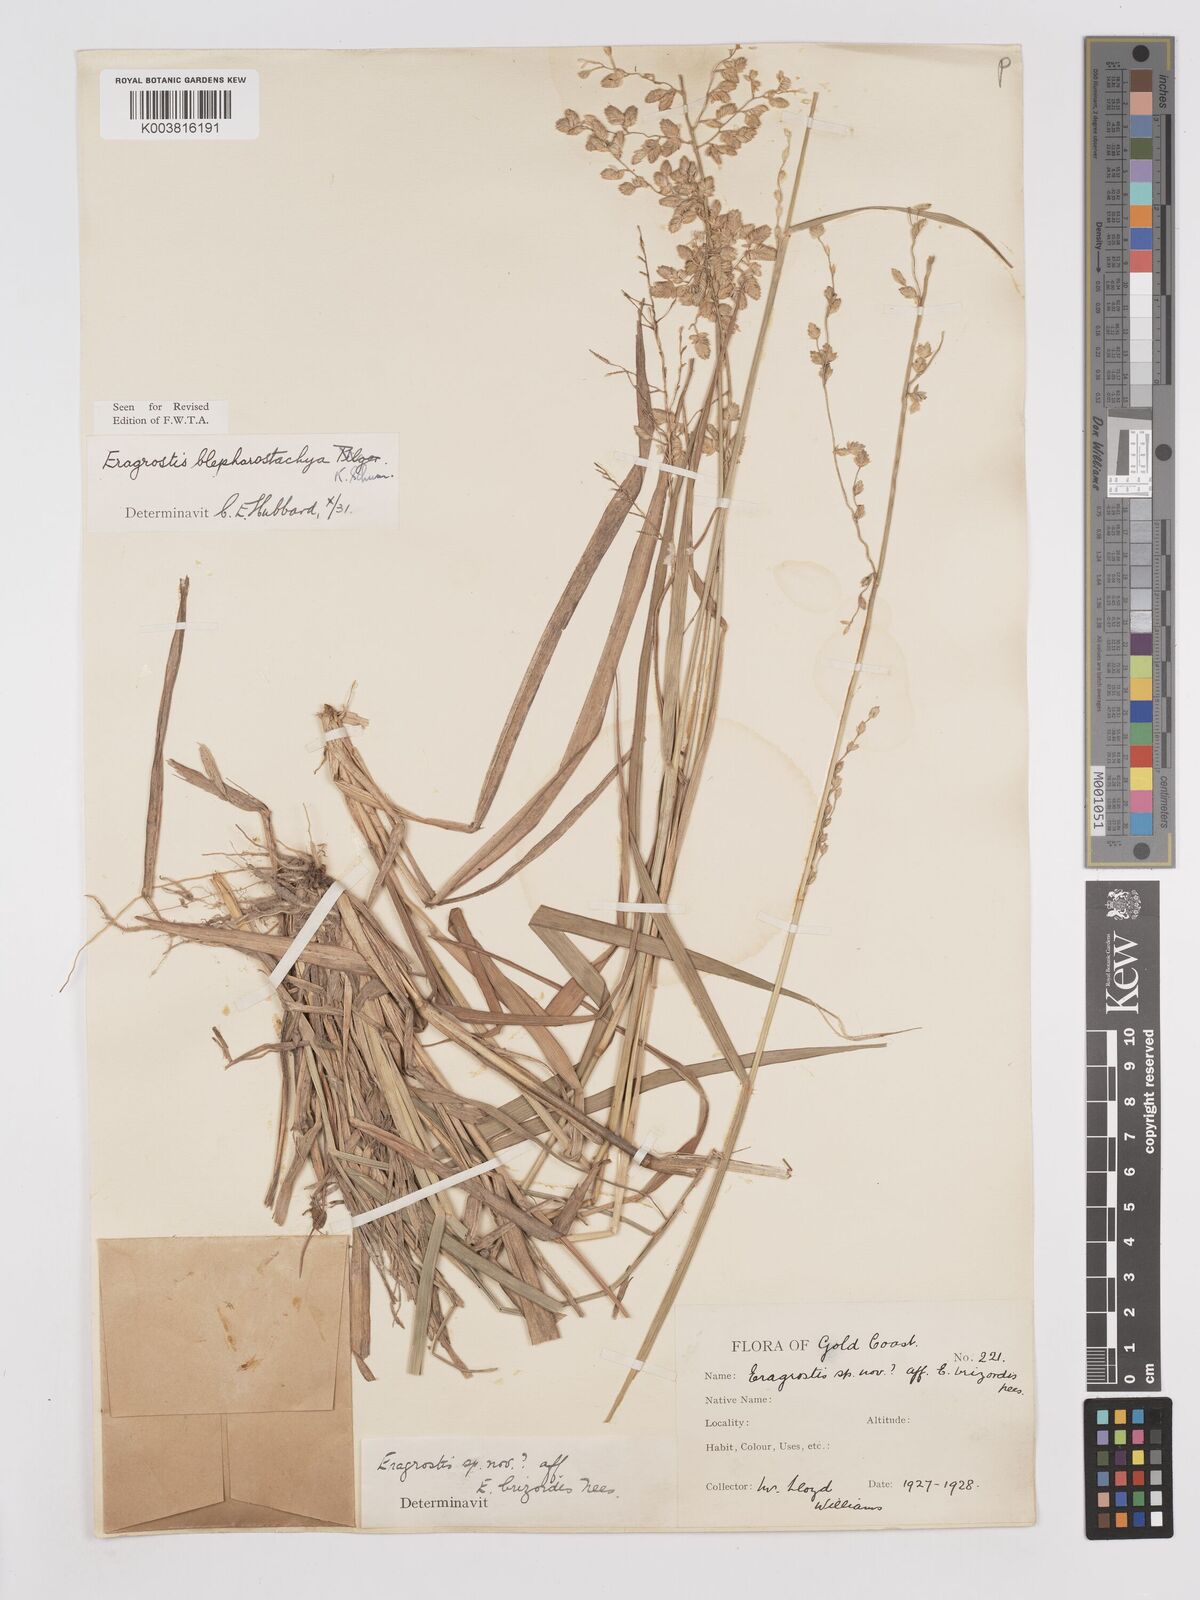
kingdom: Plantae
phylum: Tracheophyta
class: Liliopsida
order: Poales
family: Poaceae
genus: Eragrostis
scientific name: Eragrostis blepharostachya
